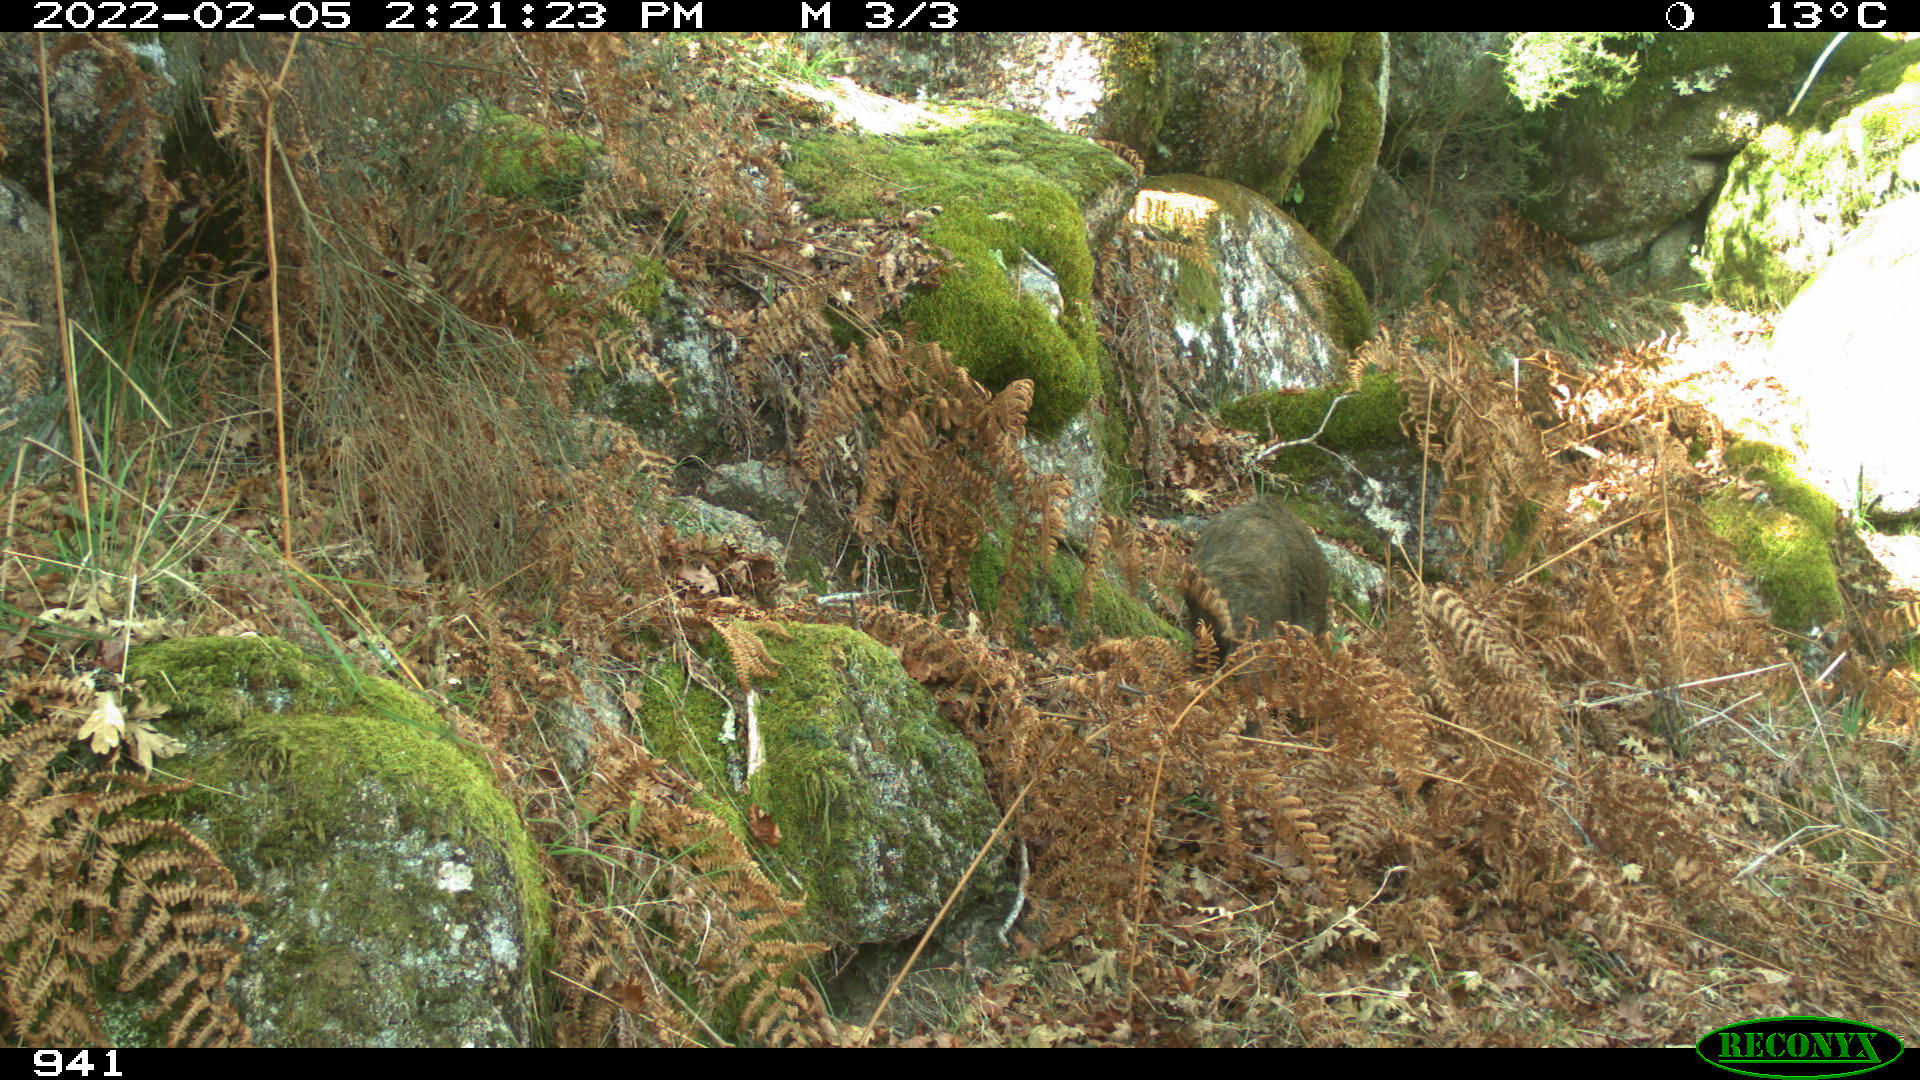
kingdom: Animalia
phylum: Chordata
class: Mammalia
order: Artiodactyla
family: Suidae
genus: Sus
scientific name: Sus scrofa
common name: Wild boar
